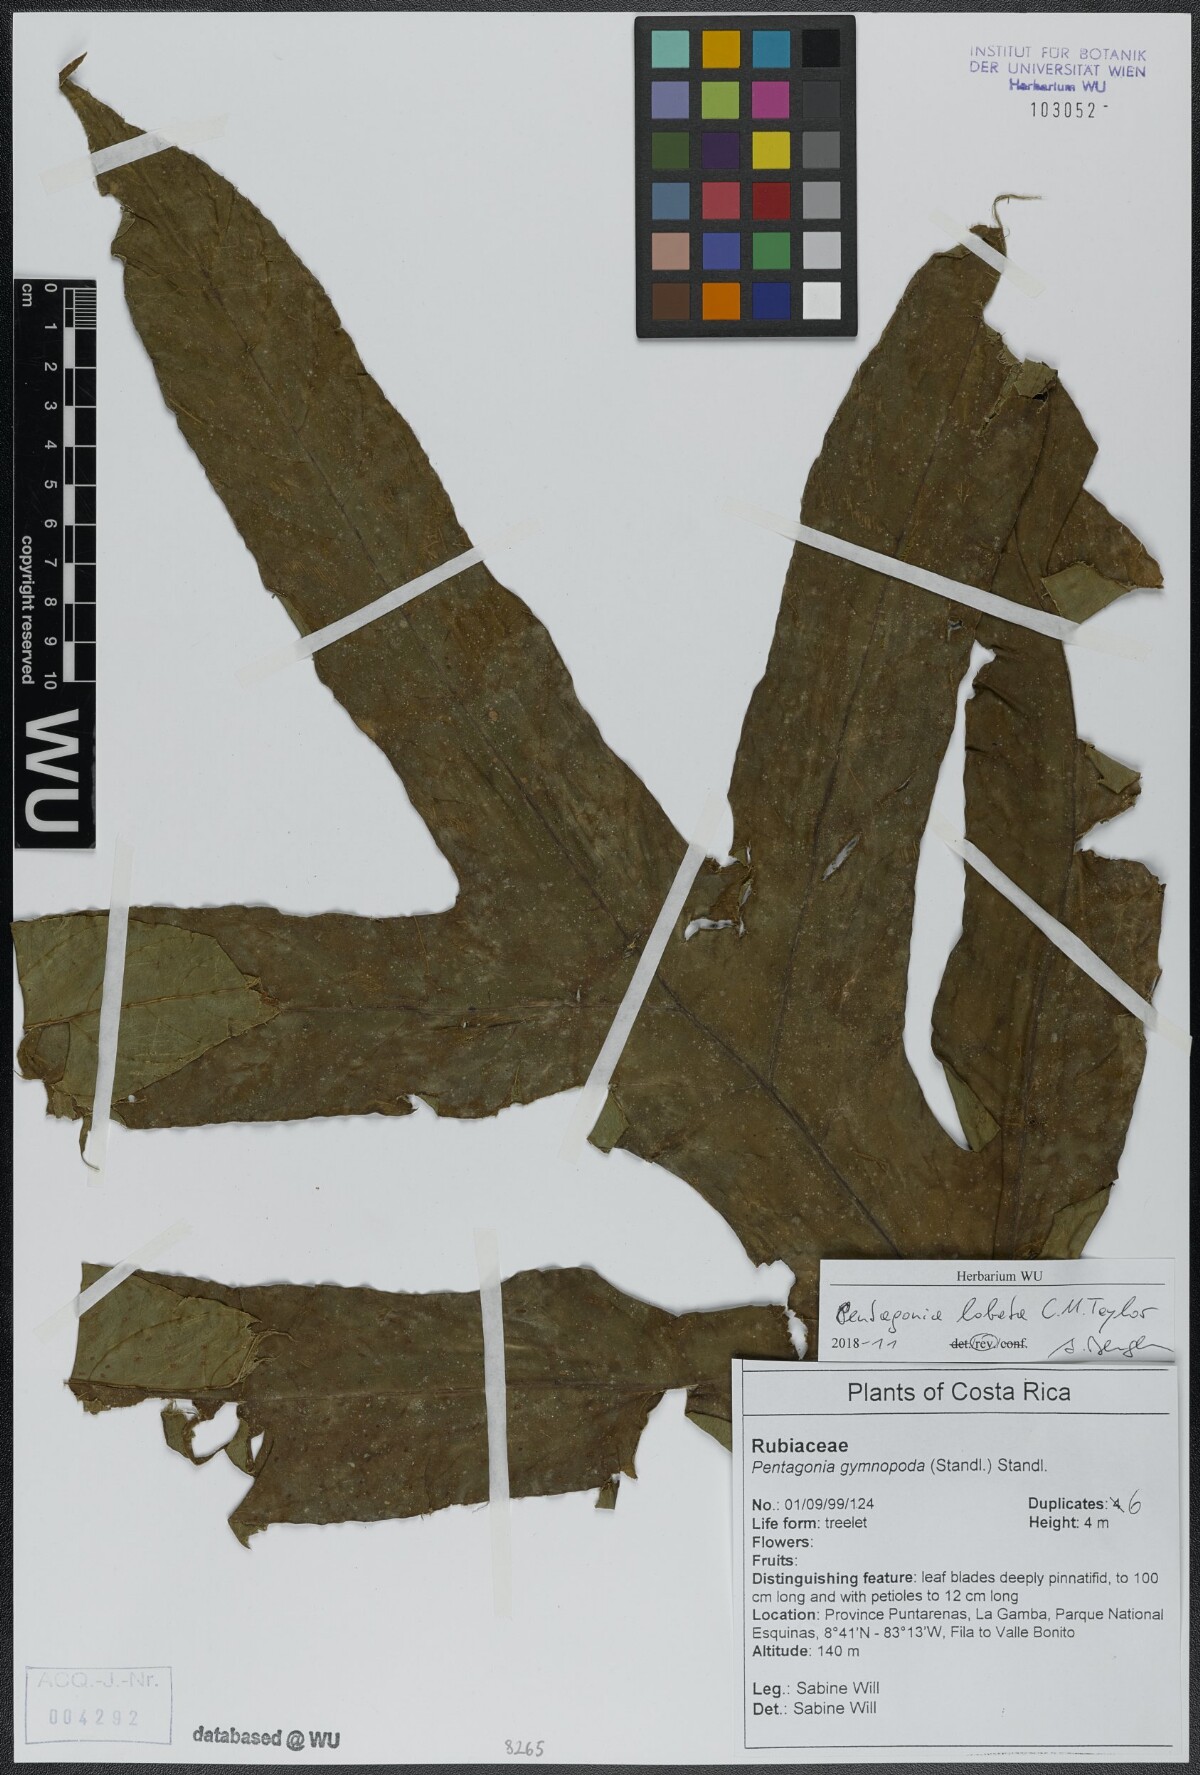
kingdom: Plantae
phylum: Tracheophyta
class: Magnoliopsida
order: Gentianales
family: Rubiaceae
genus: Pentagonia
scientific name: Pentagonia lobata
